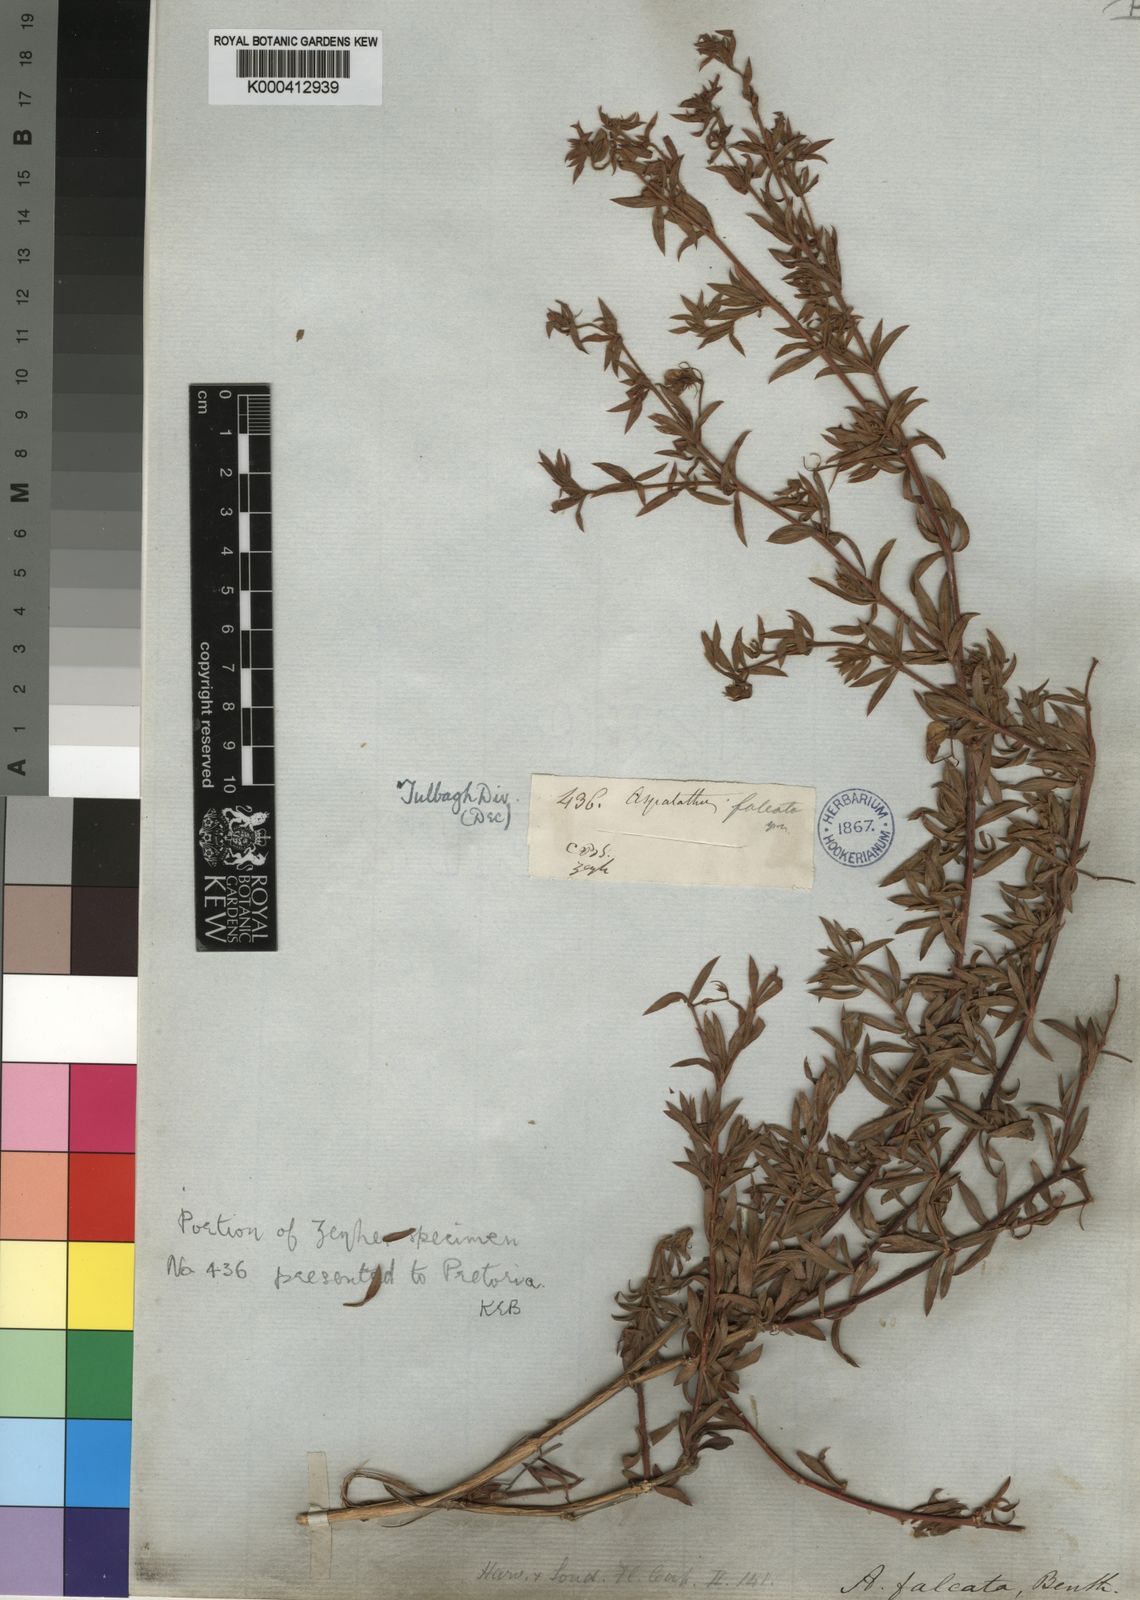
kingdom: Plantae
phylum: Tracheophyta
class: Magnoliopsida
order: Fabales
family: Fabaceae
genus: Aspalathus
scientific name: Aspalathus lanata
